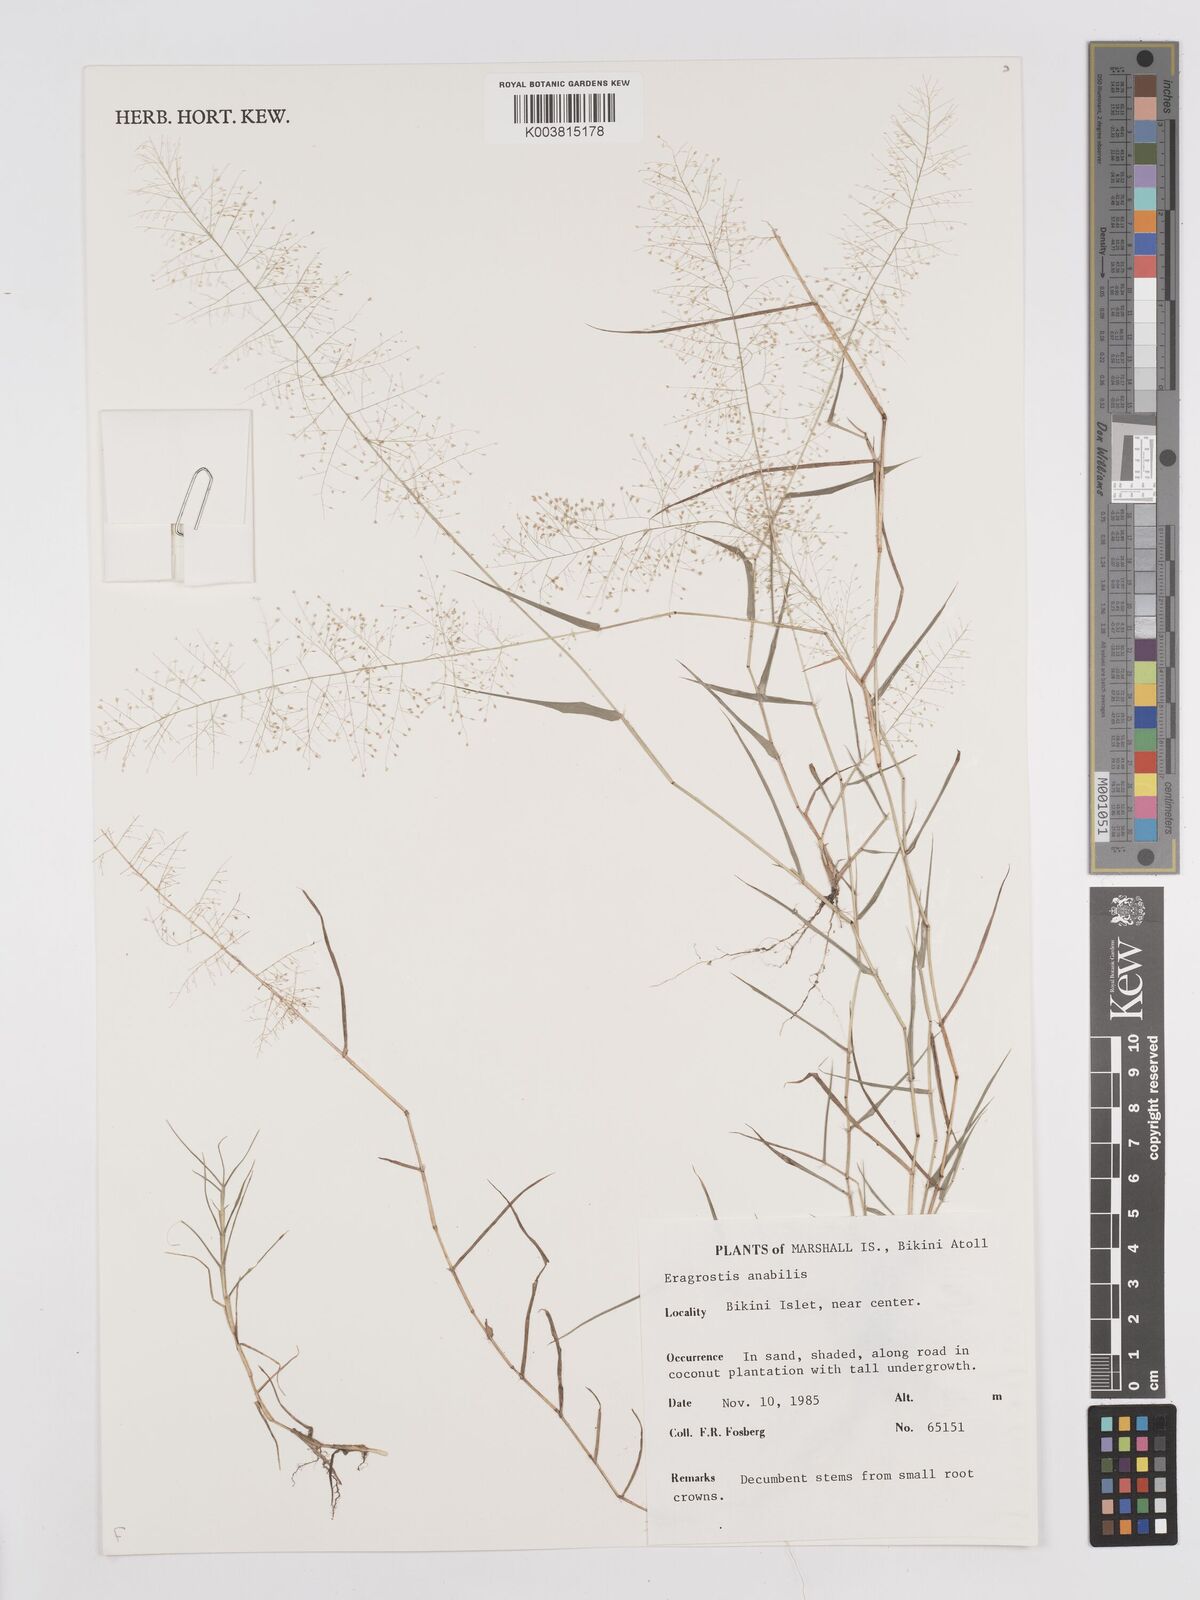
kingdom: Plantae
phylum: Tracheophyta
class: Liliopsida
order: Poales
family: Poaceae
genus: Eragrostis
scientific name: Eragrostis tenella
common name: Japanese lovegrass
